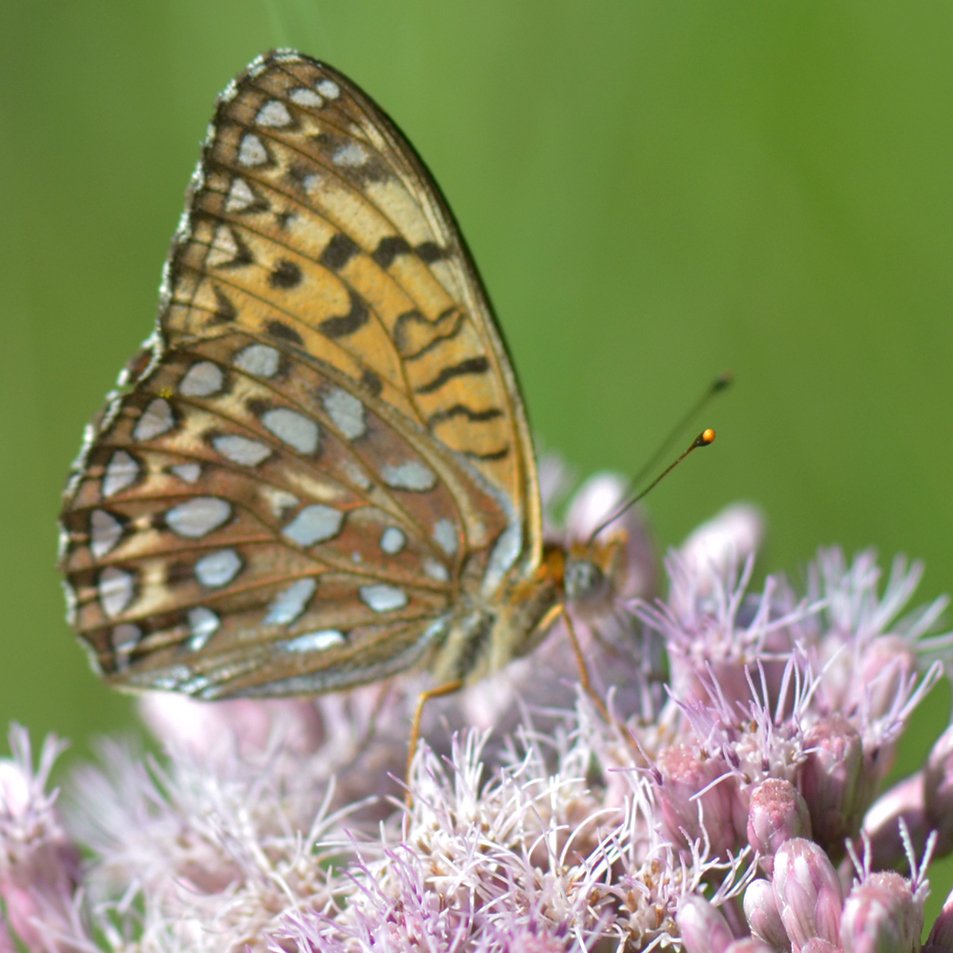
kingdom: Animalia
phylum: Arthropoda
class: Insecta
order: Lepidoptera
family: Nymphalidae
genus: Speyeria
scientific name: Speyeria atlantis
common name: Atlantis Fritillary
